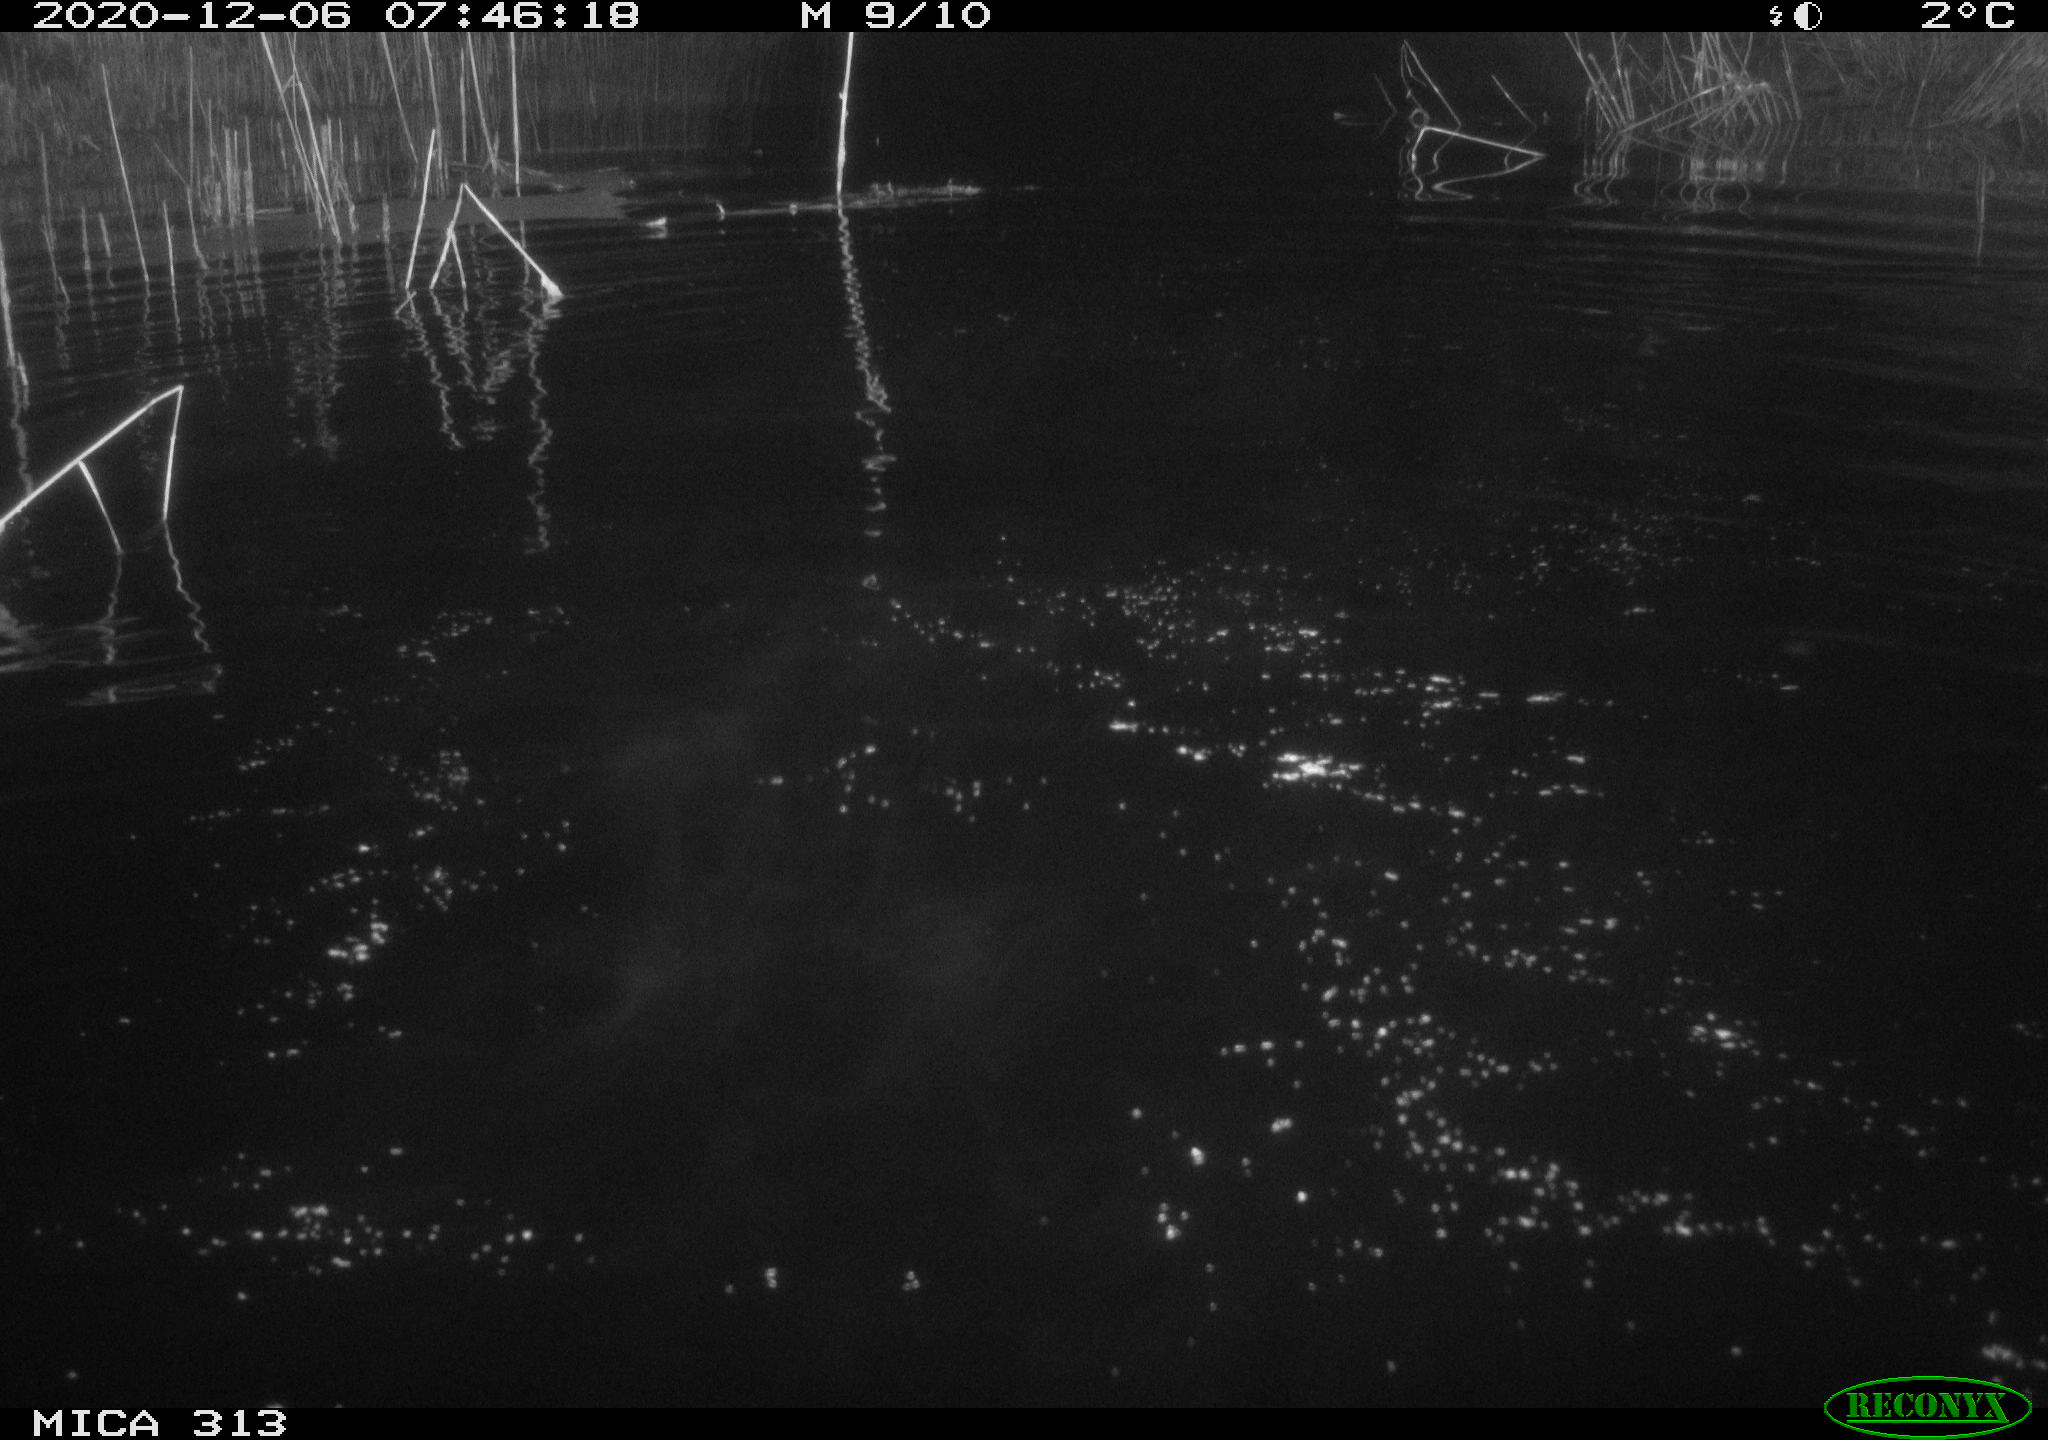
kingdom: Animalia
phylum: Chordata
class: Aves
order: Gruiformes
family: Rallidae
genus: Gallinula
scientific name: Gallinula chloropus
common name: Common moorhen
